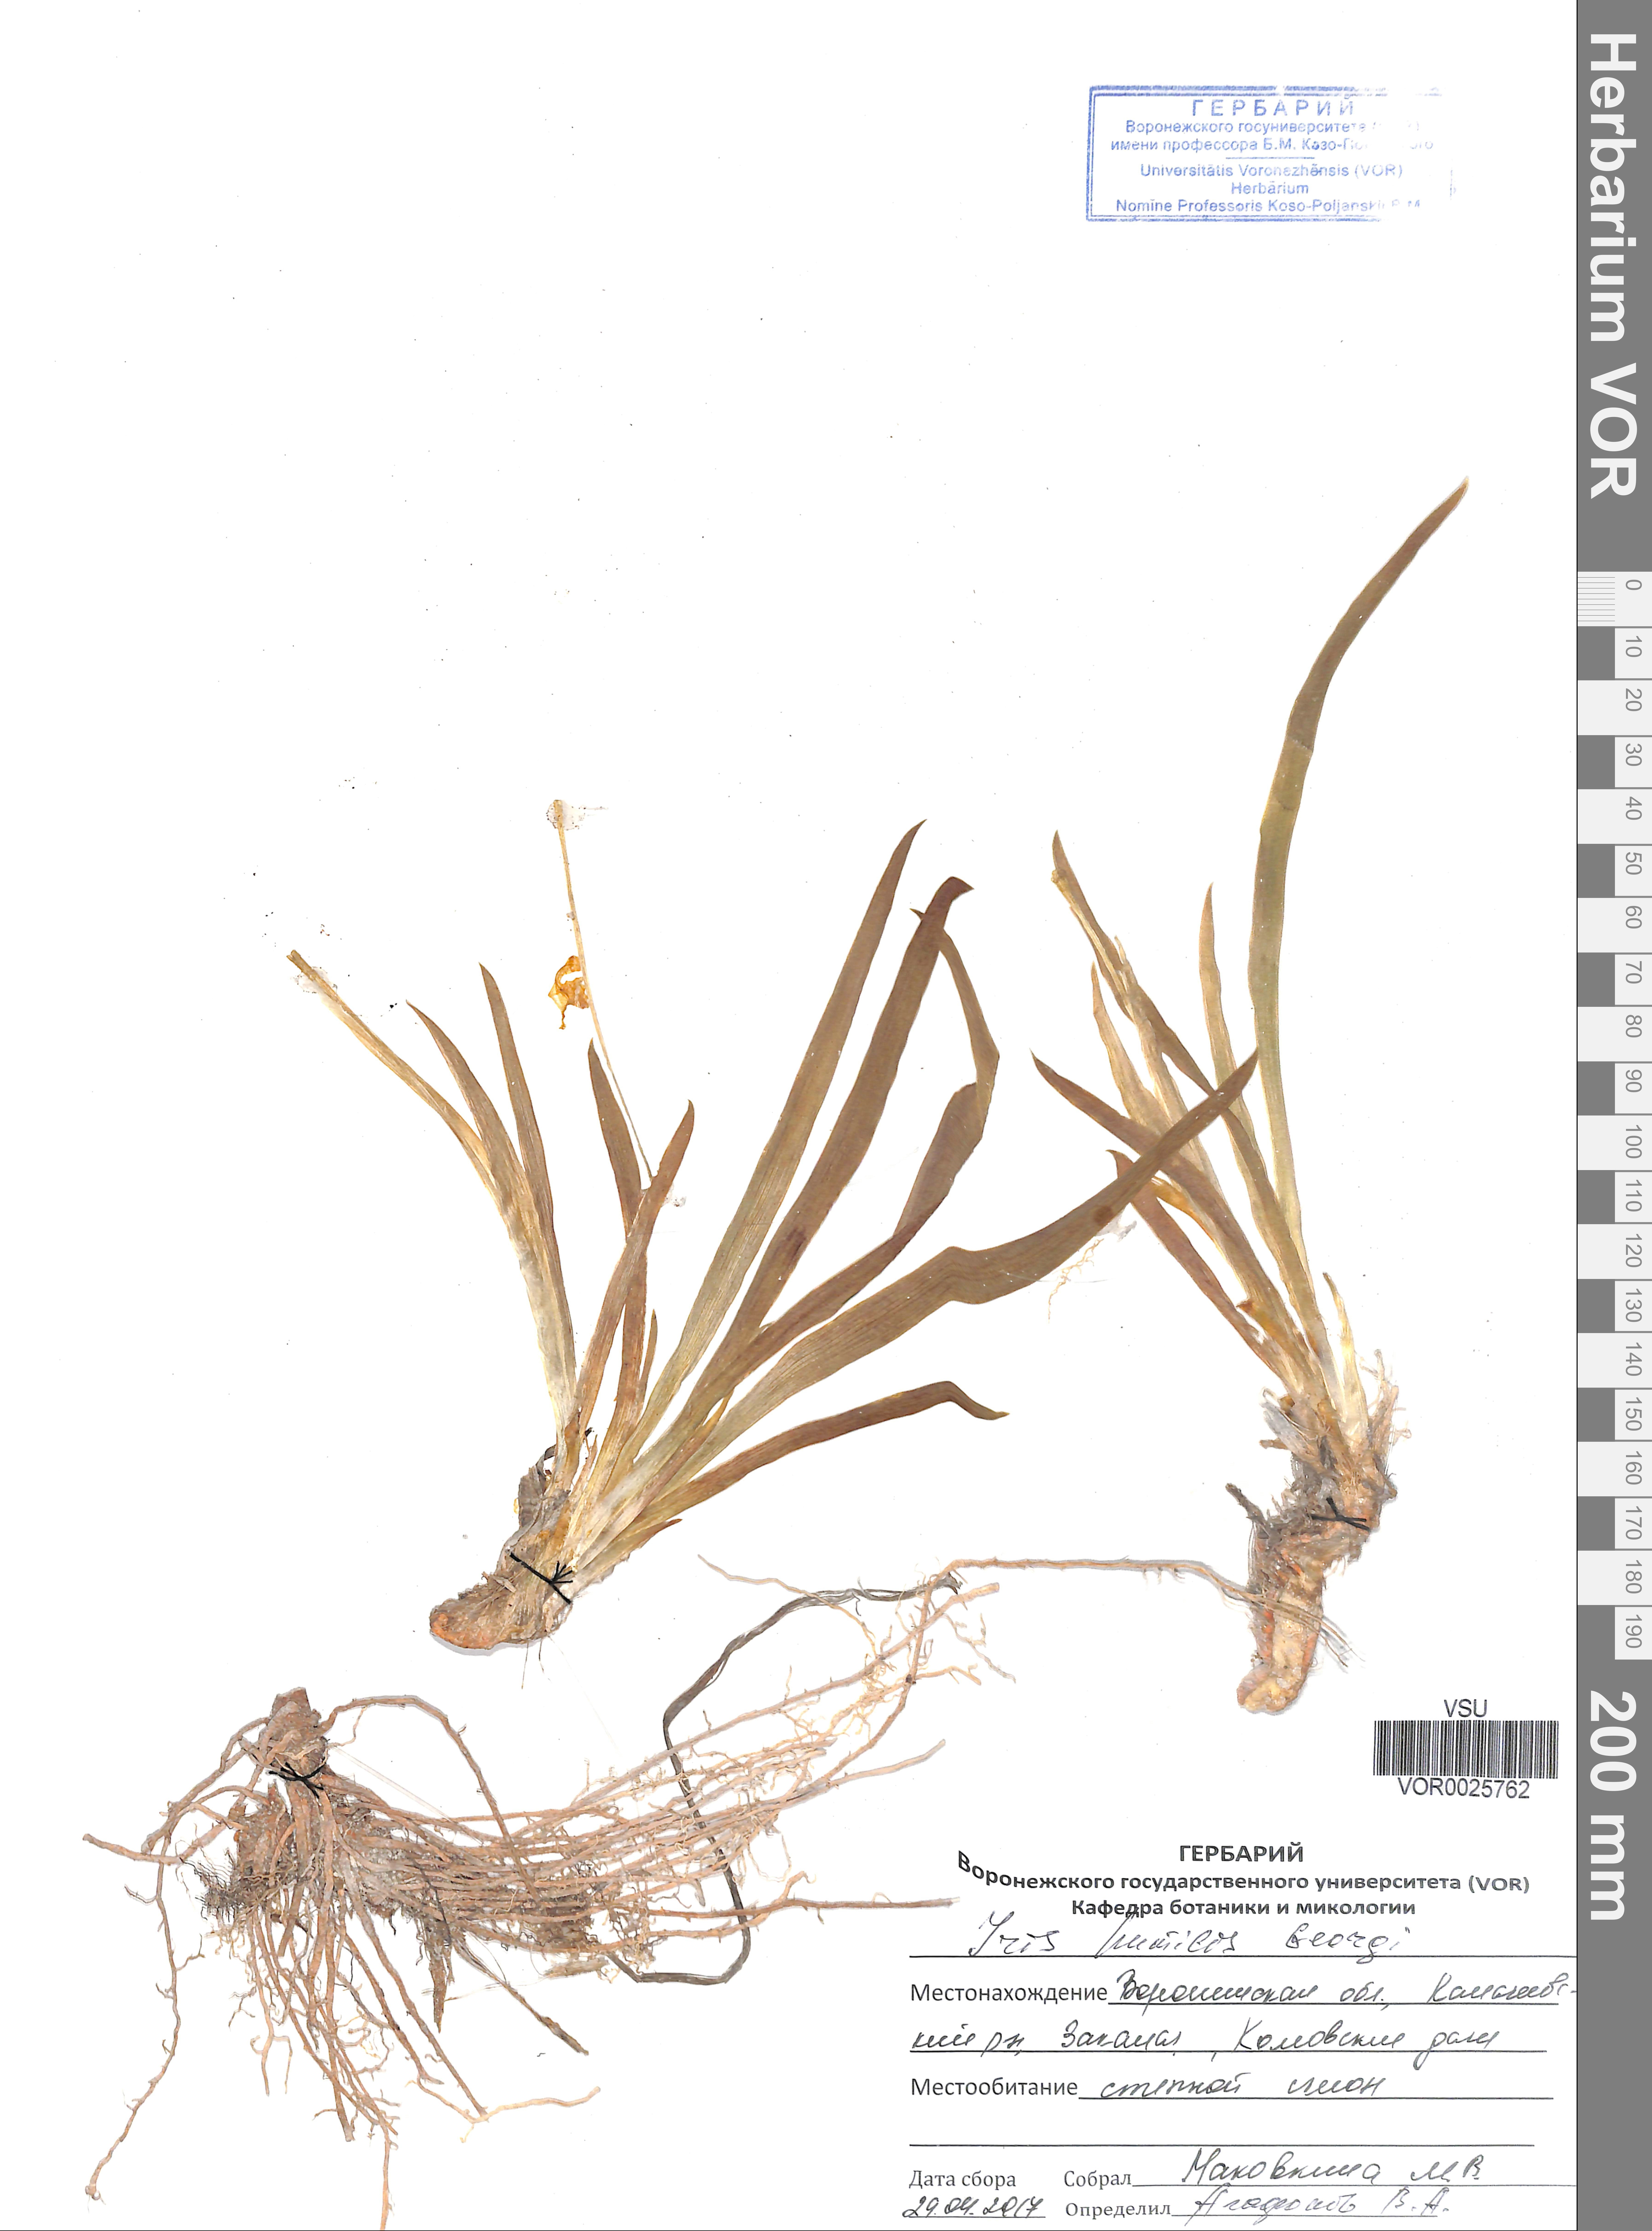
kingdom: Plantae
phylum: Tracheophyta
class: Liliopsida
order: Asparagales
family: Iridaceae
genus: Iris
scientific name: Iris humilis
